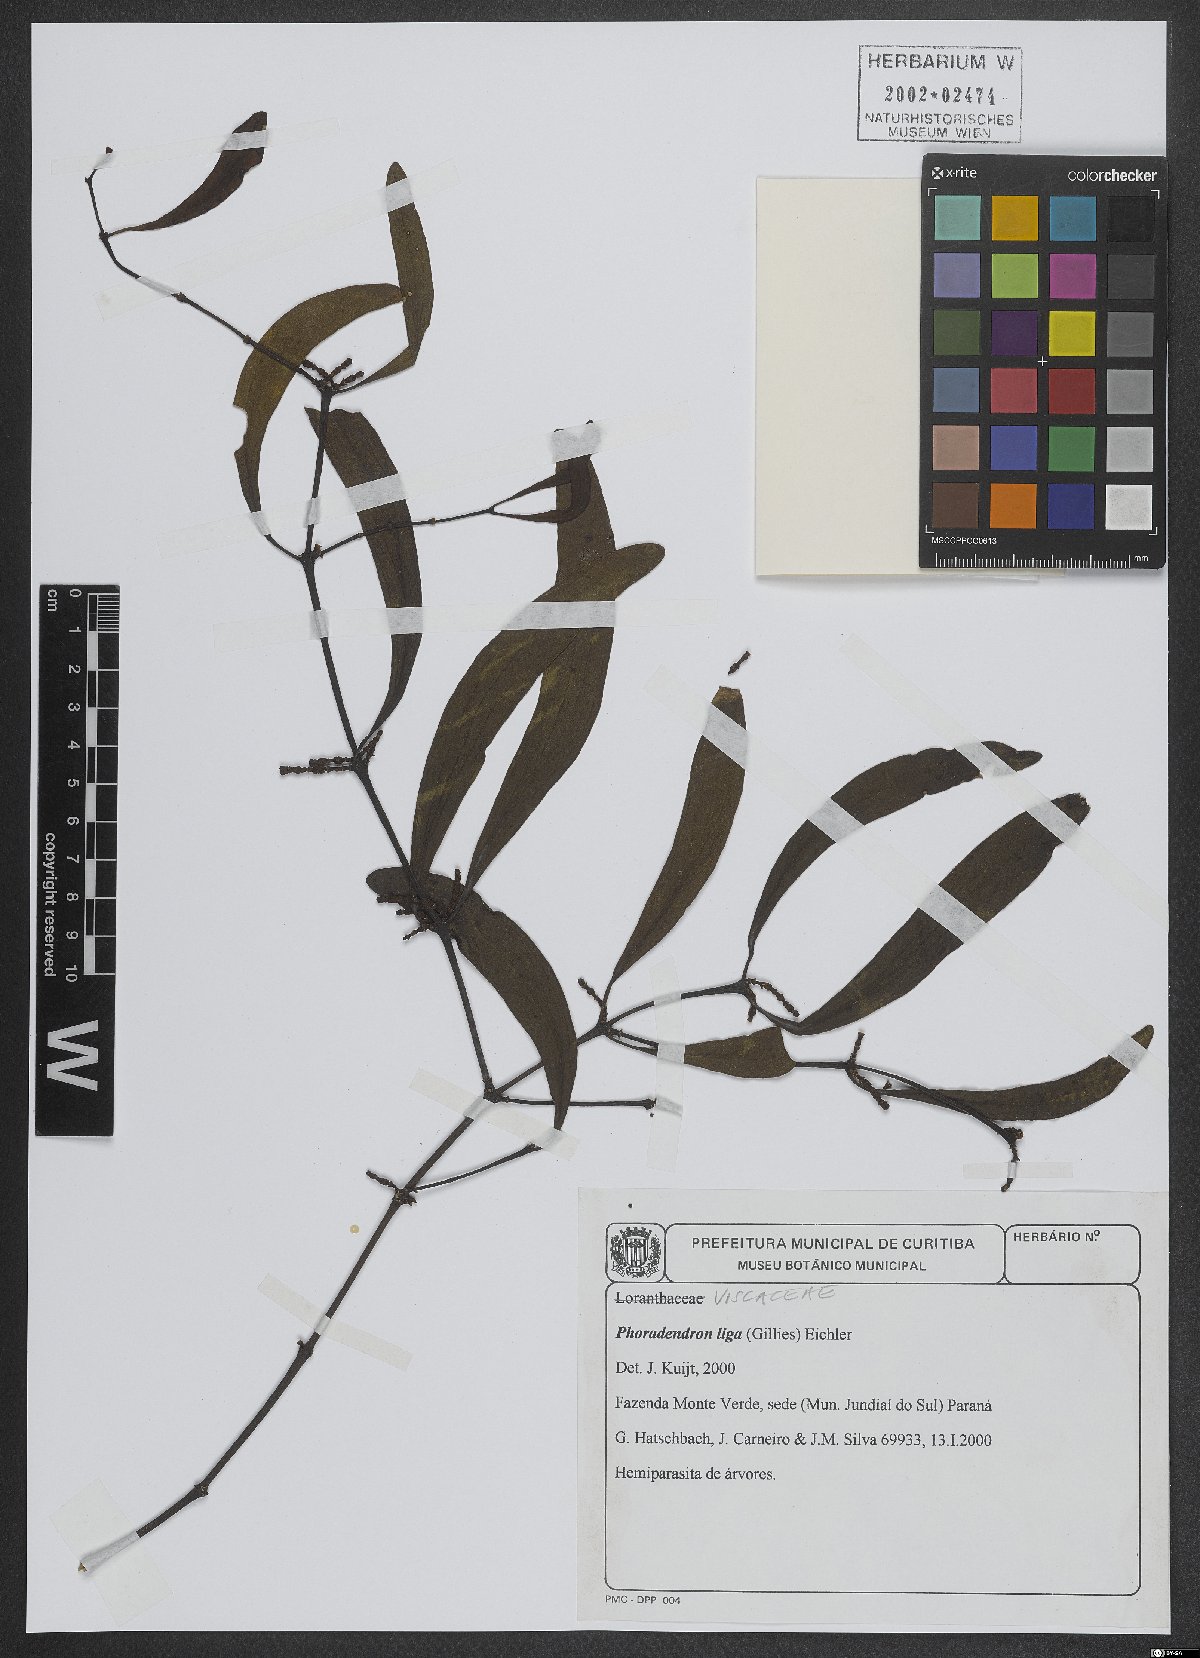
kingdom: Plantae
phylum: Tracheophyta
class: Magnoliopsida
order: Santalales
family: Viscaceae
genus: Phoradendron
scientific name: Phoradendron liga
